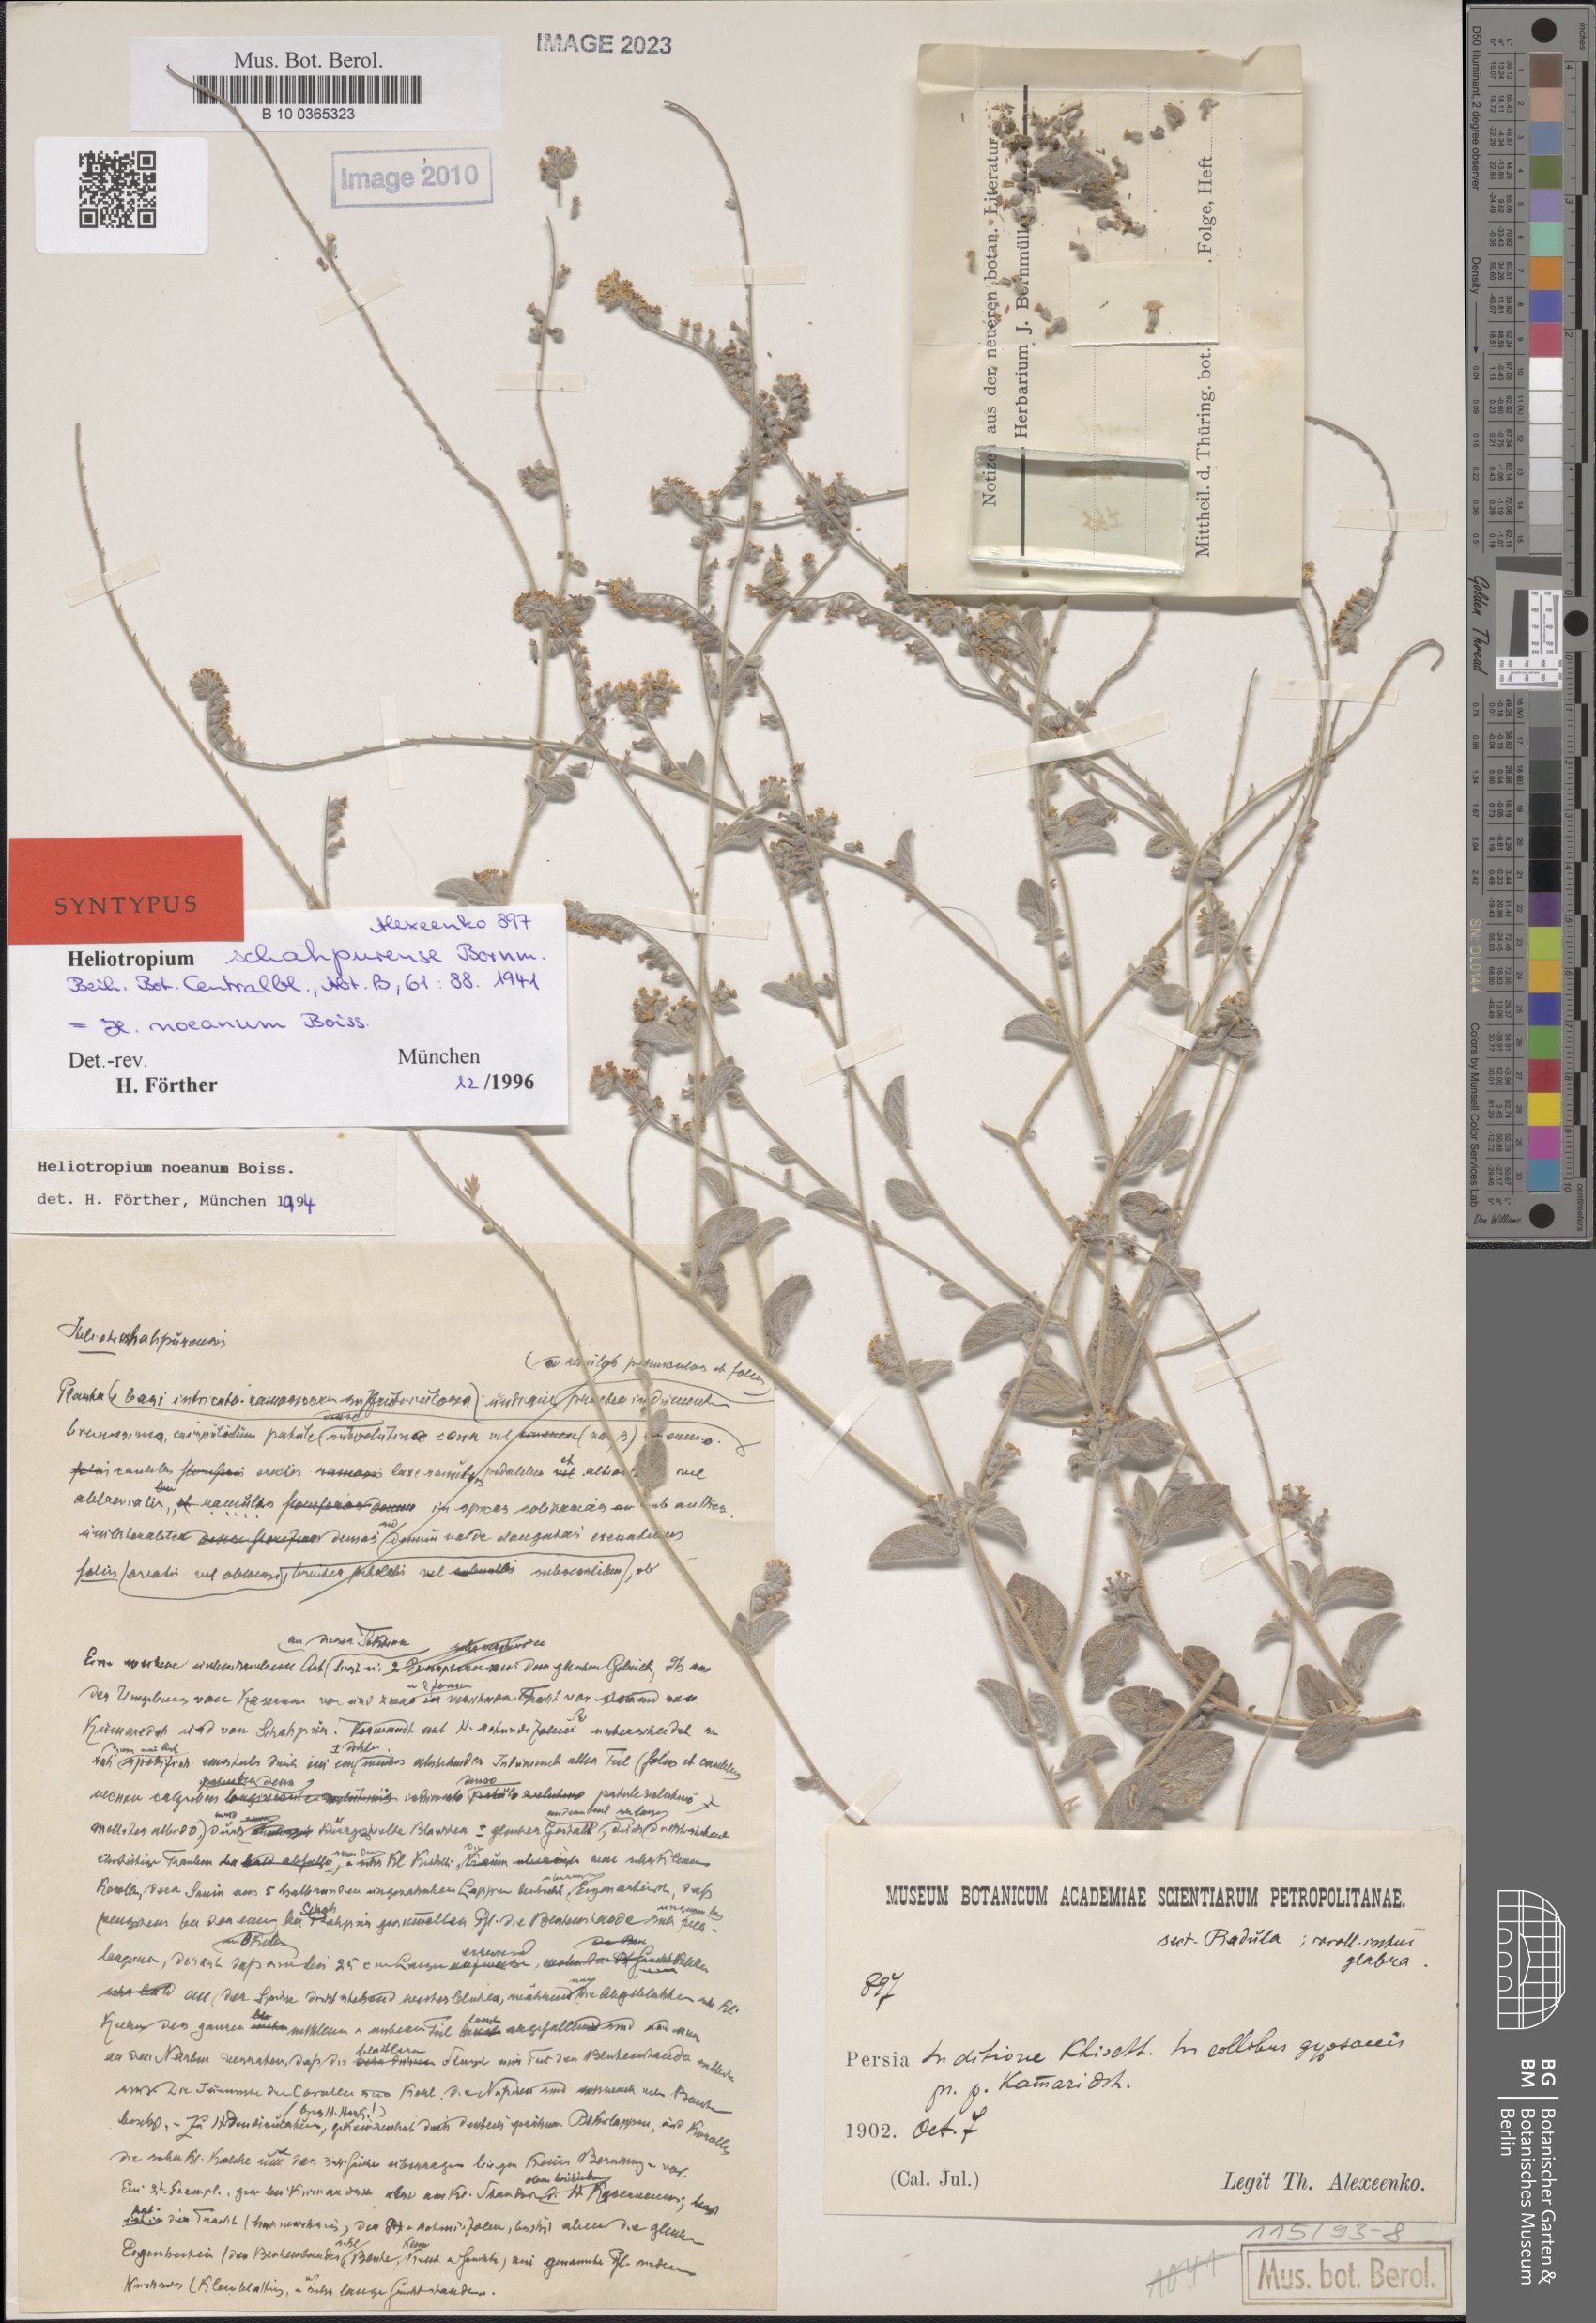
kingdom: Plantae
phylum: Tracheophyta
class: Magnoliopsida
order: Boraginales
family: Heliotropiaceae
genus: Heliotropium
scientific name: Heliotropium schahpurense
